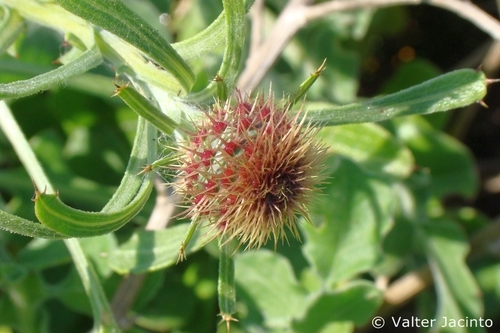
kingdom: Plantae
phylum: Tracheophyta
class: Magnoliopsida
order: Asterales
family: Asteraceae
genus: Centaurea
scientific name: Centaurea sphaerocephala
